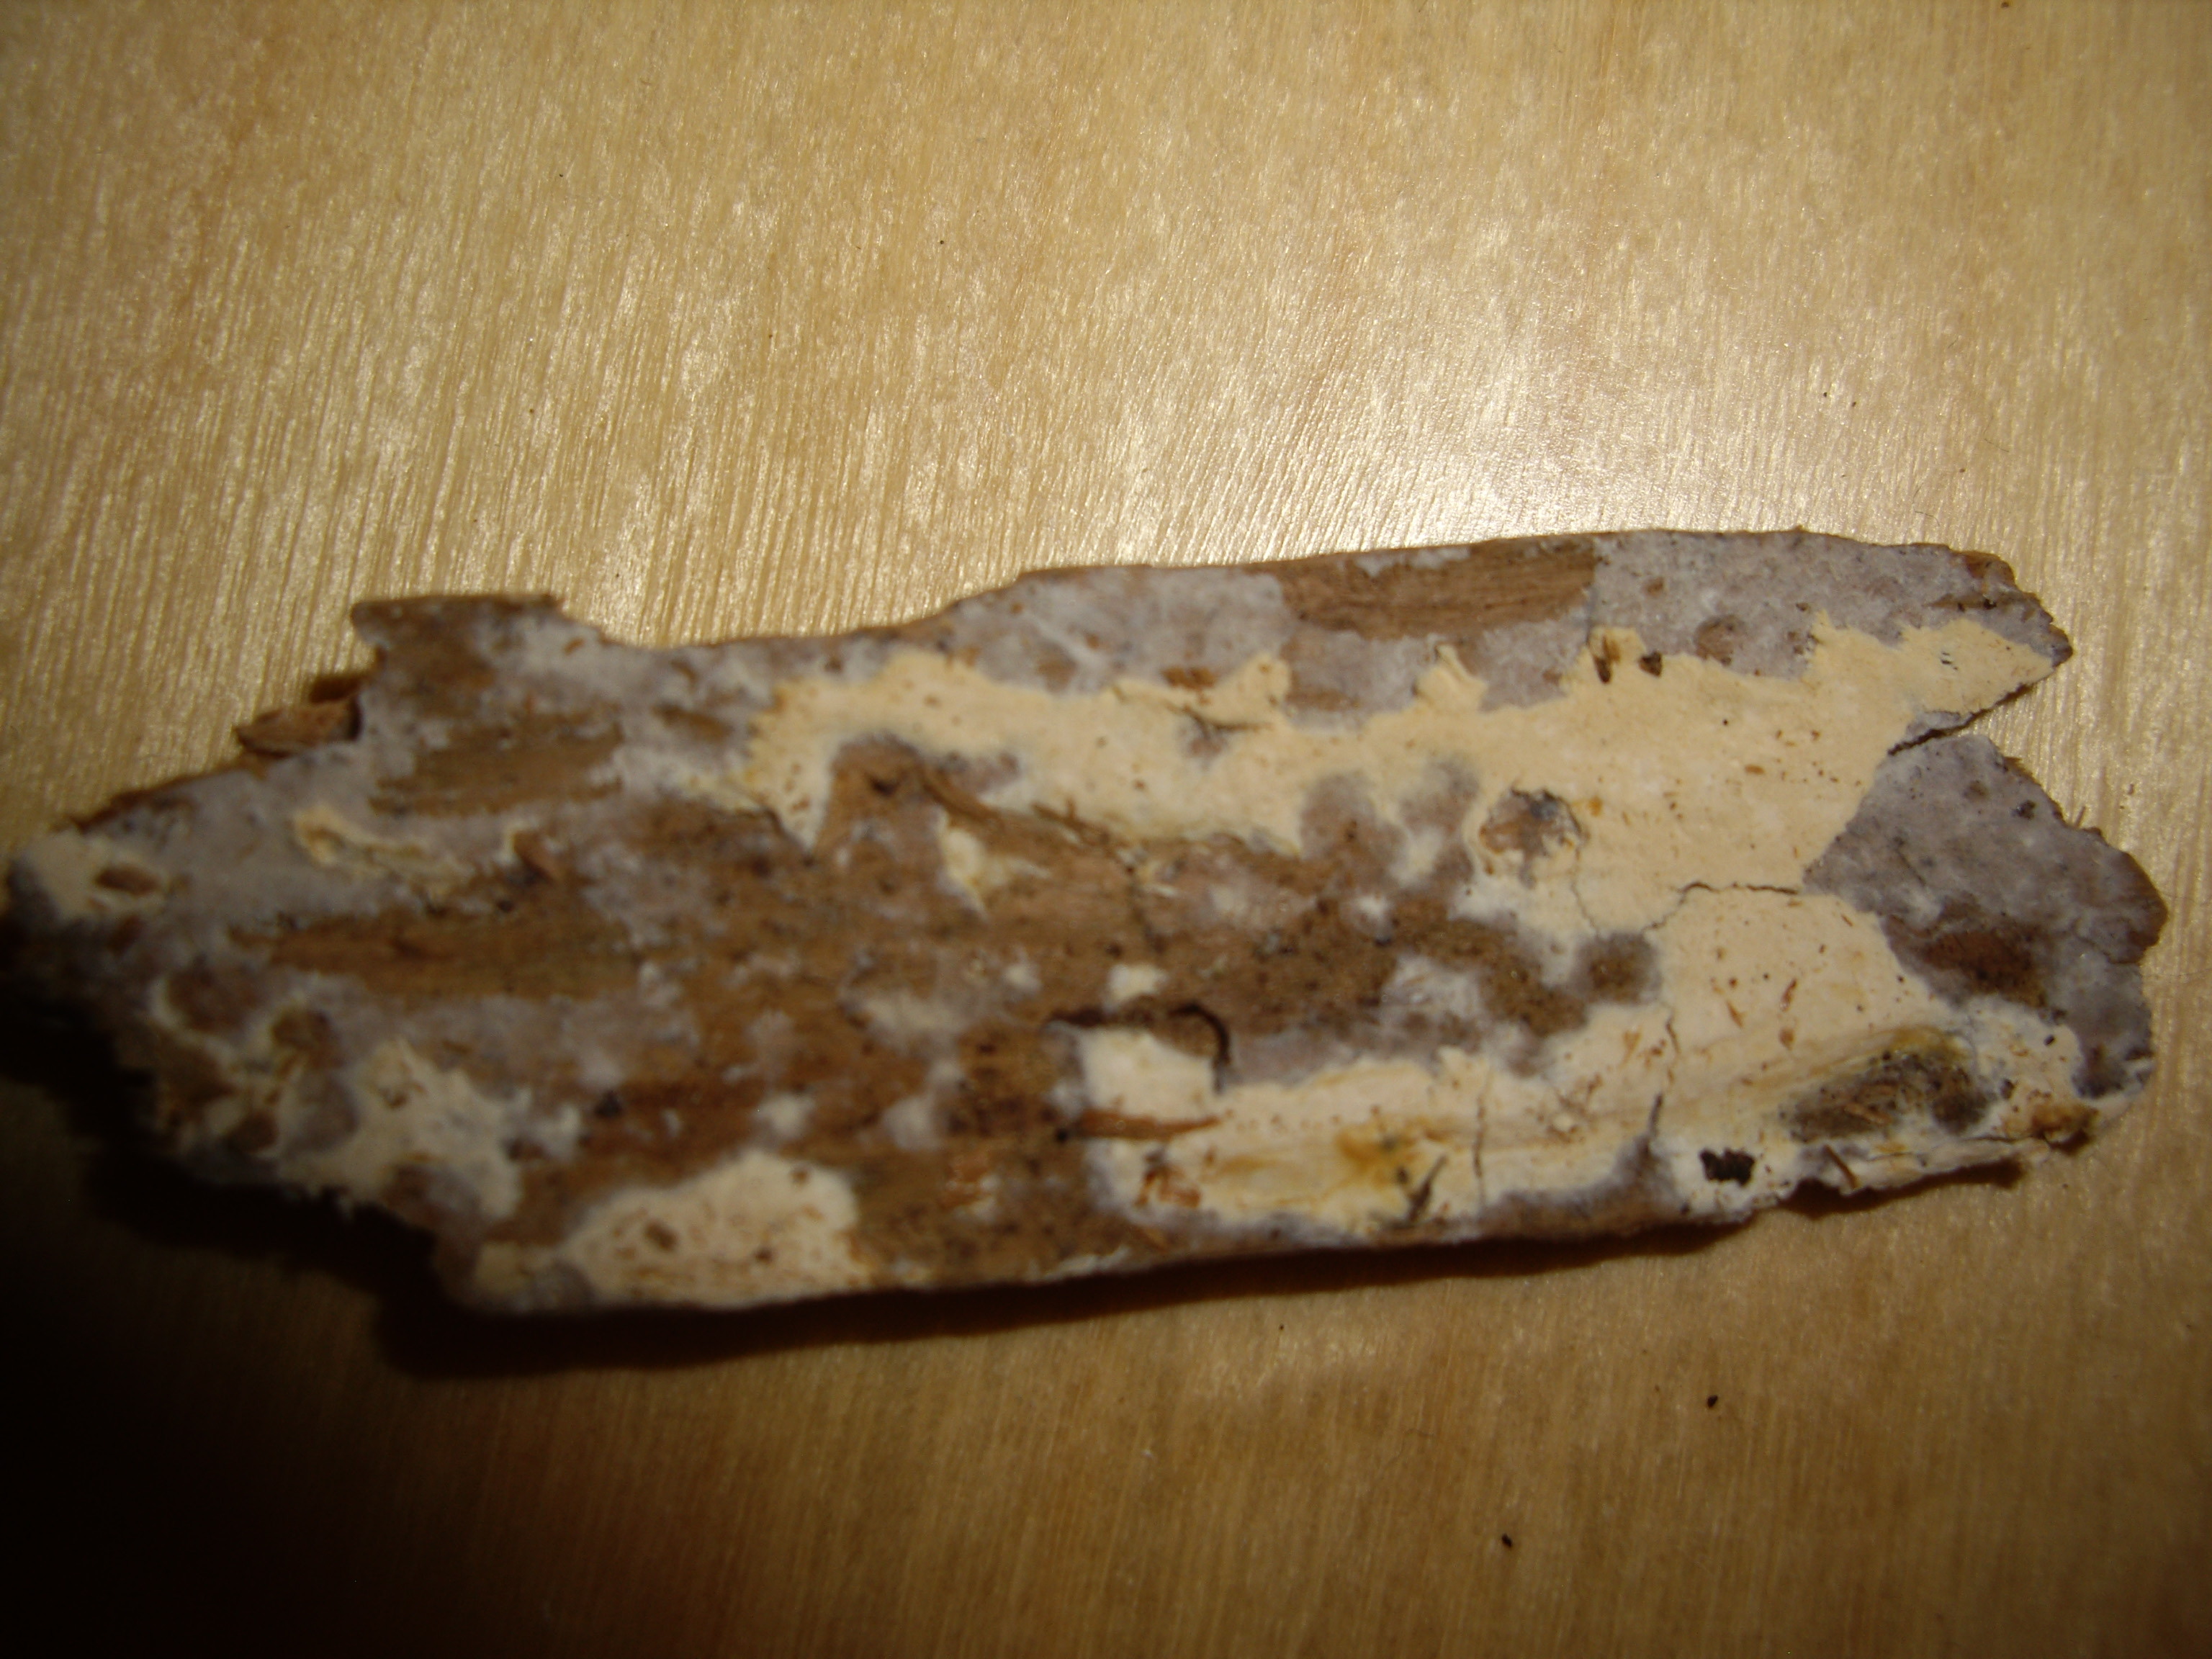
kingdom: Fungi
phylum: Basidiomycota
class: Agaricomycetes
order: Amylocorticiales
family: Amylocorticiaceae
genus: Amylocorticiellum
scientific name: Amylocorticiellum subillaqueatum
